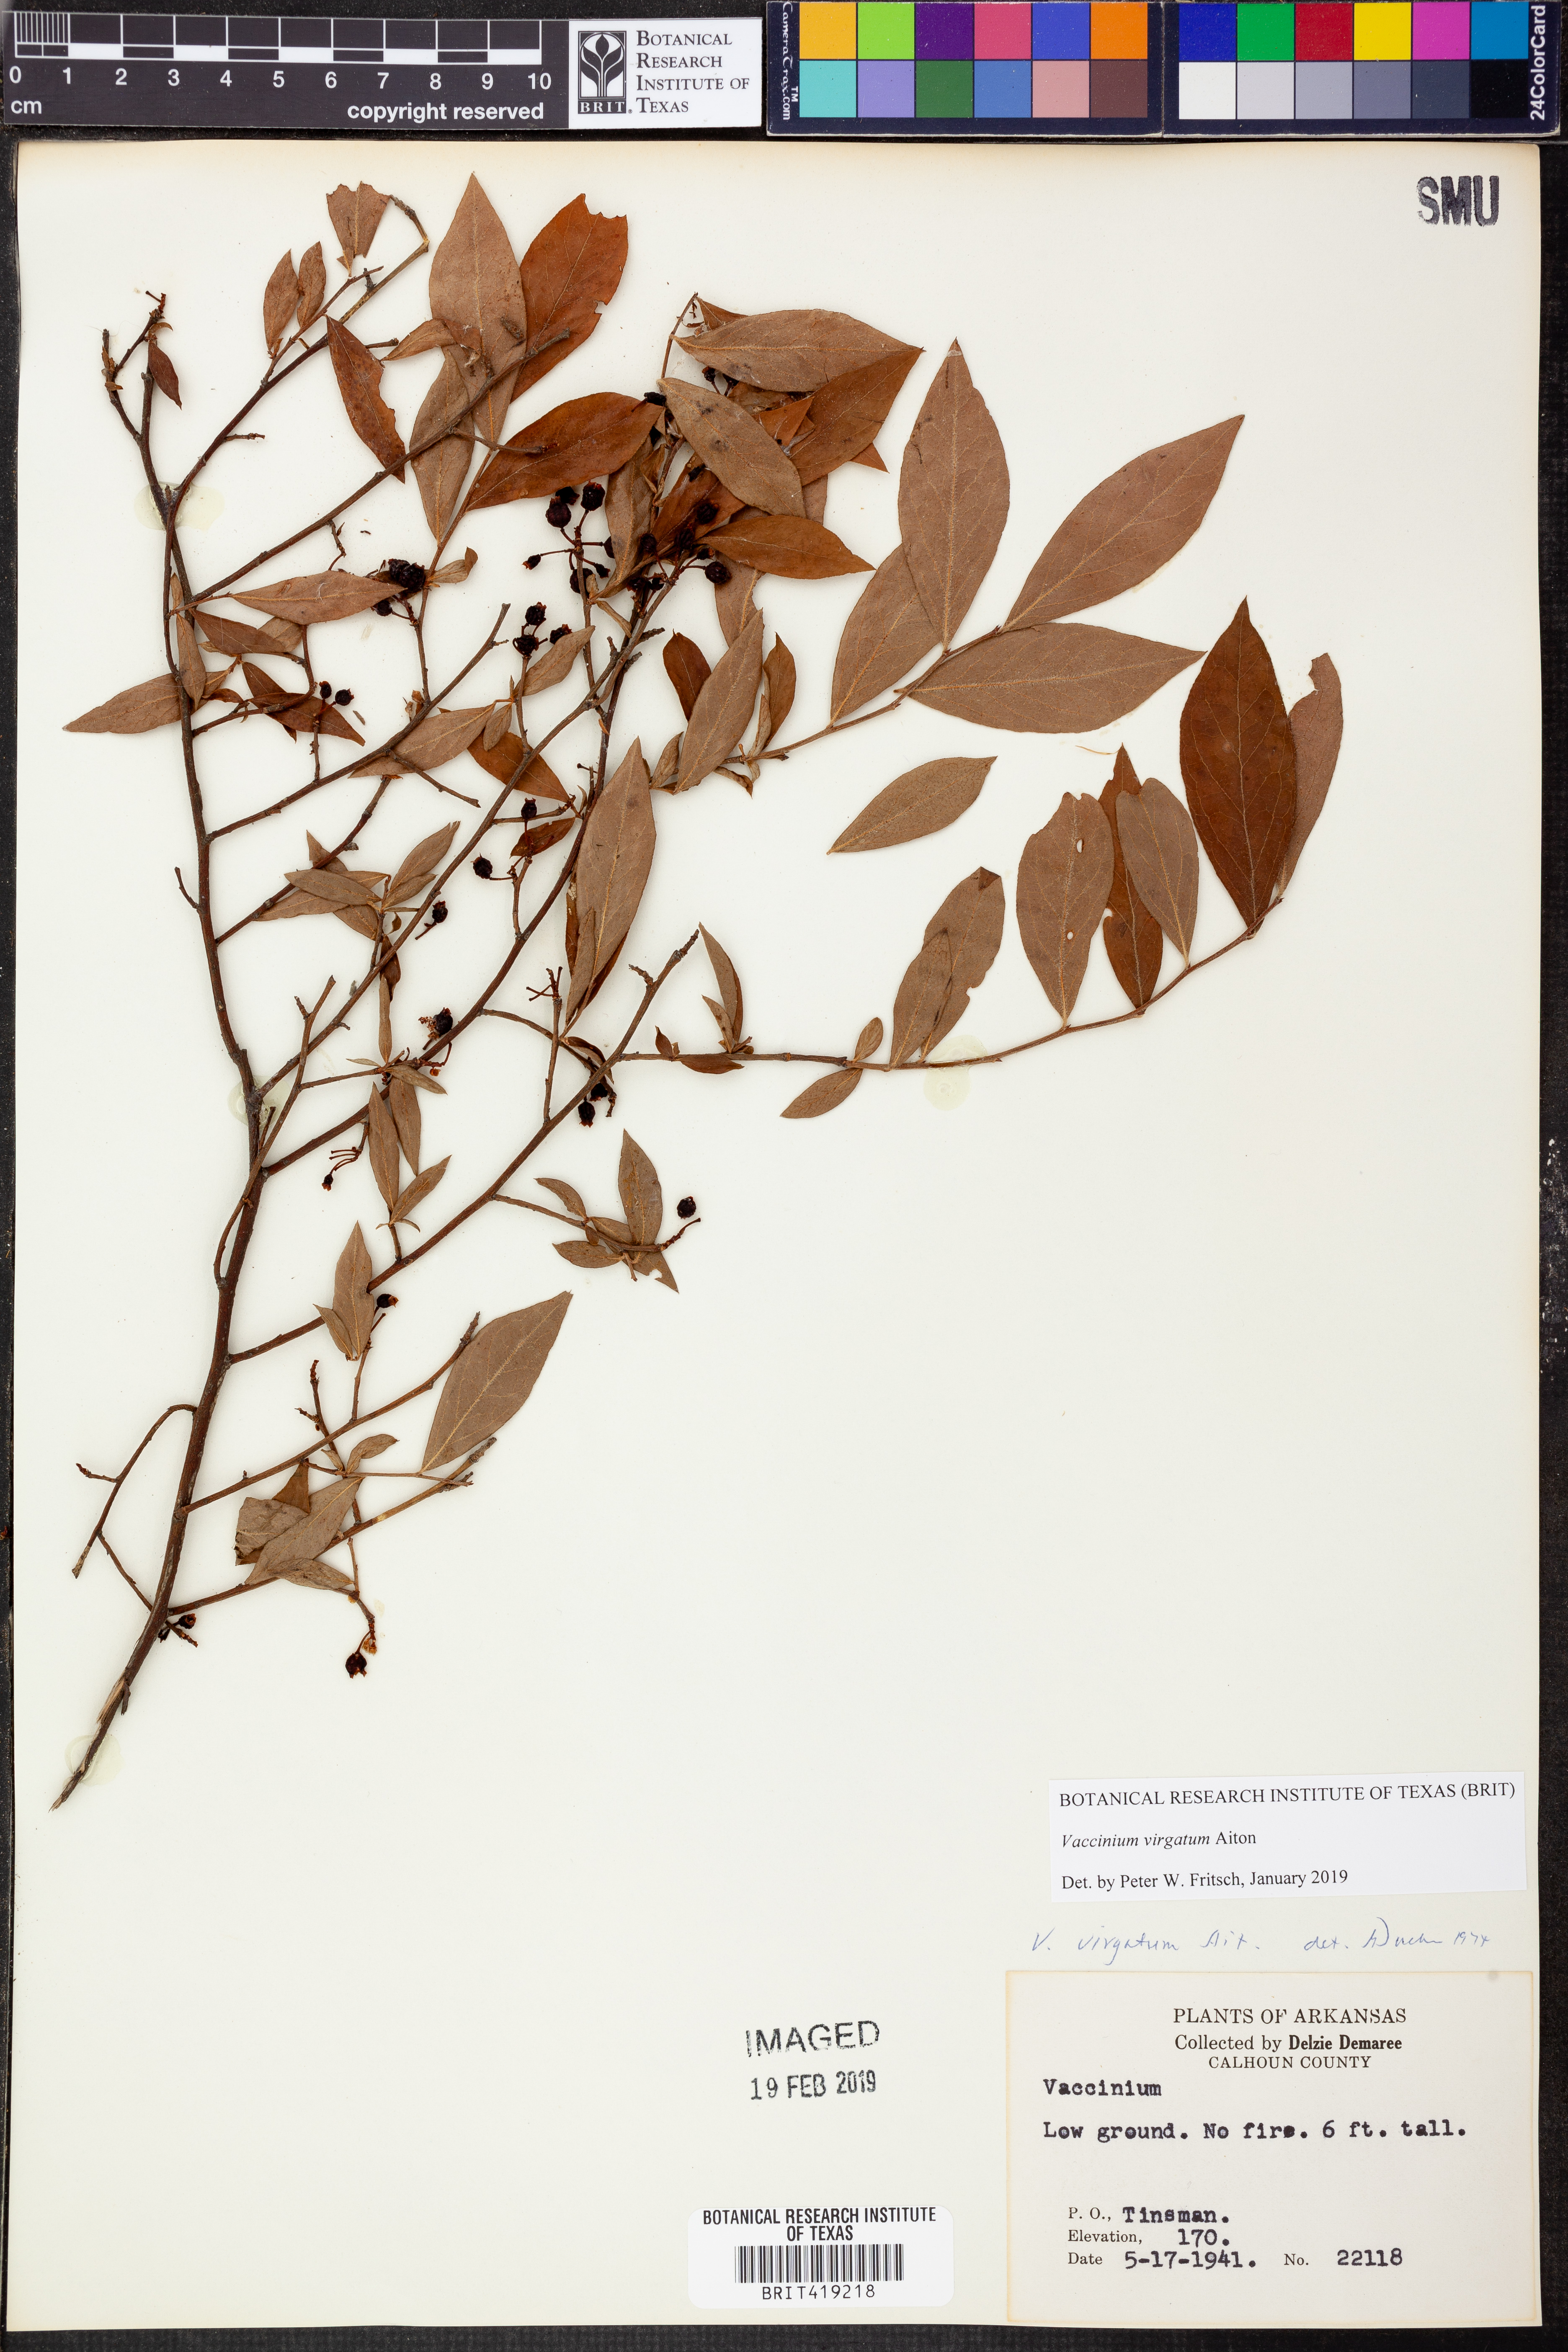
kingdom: Plantae
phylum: Tracheophyta
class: Magnoliopsida
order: Ericales
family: Ericaceae
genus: Vaccinium
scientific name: Vaccinium corymbosum
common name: Blueberry
